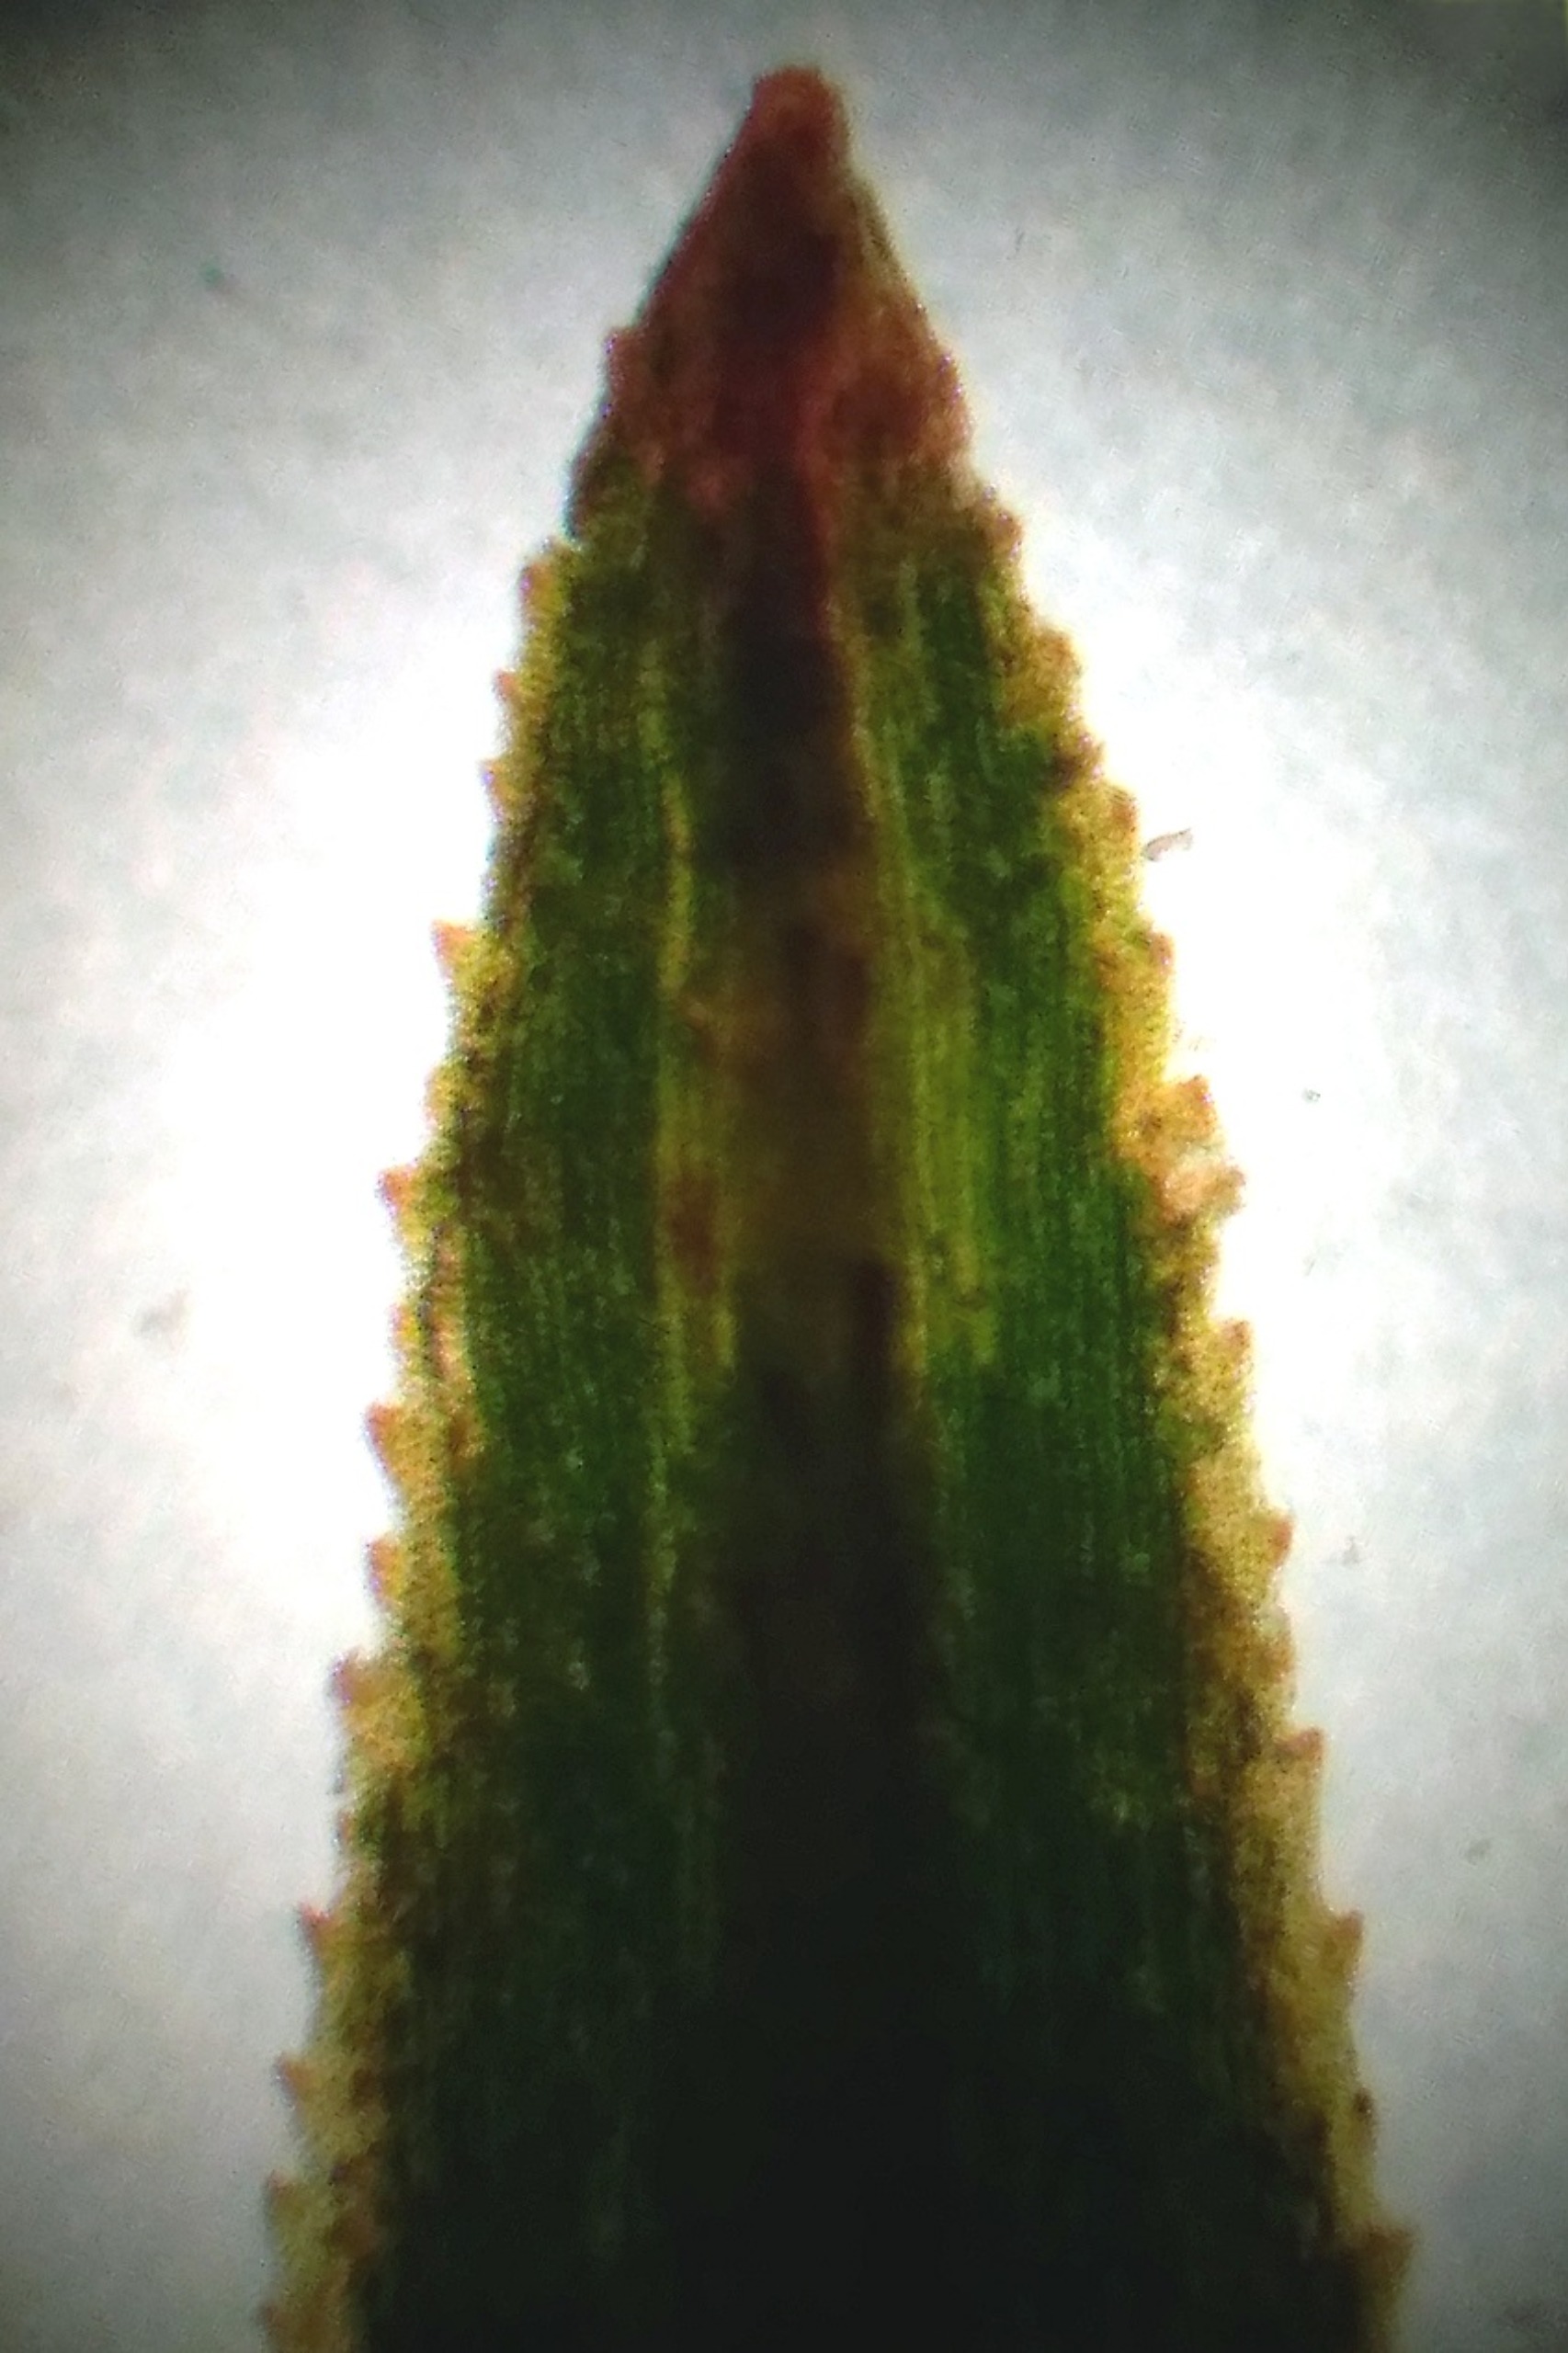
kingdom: Plantae
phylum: Bryophyta
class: Polytrichopsida
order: Polytrichales
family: Polytrichaceae
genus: Pogonatum
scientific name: Pogonatum aloides
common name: Smal urnekapsel
